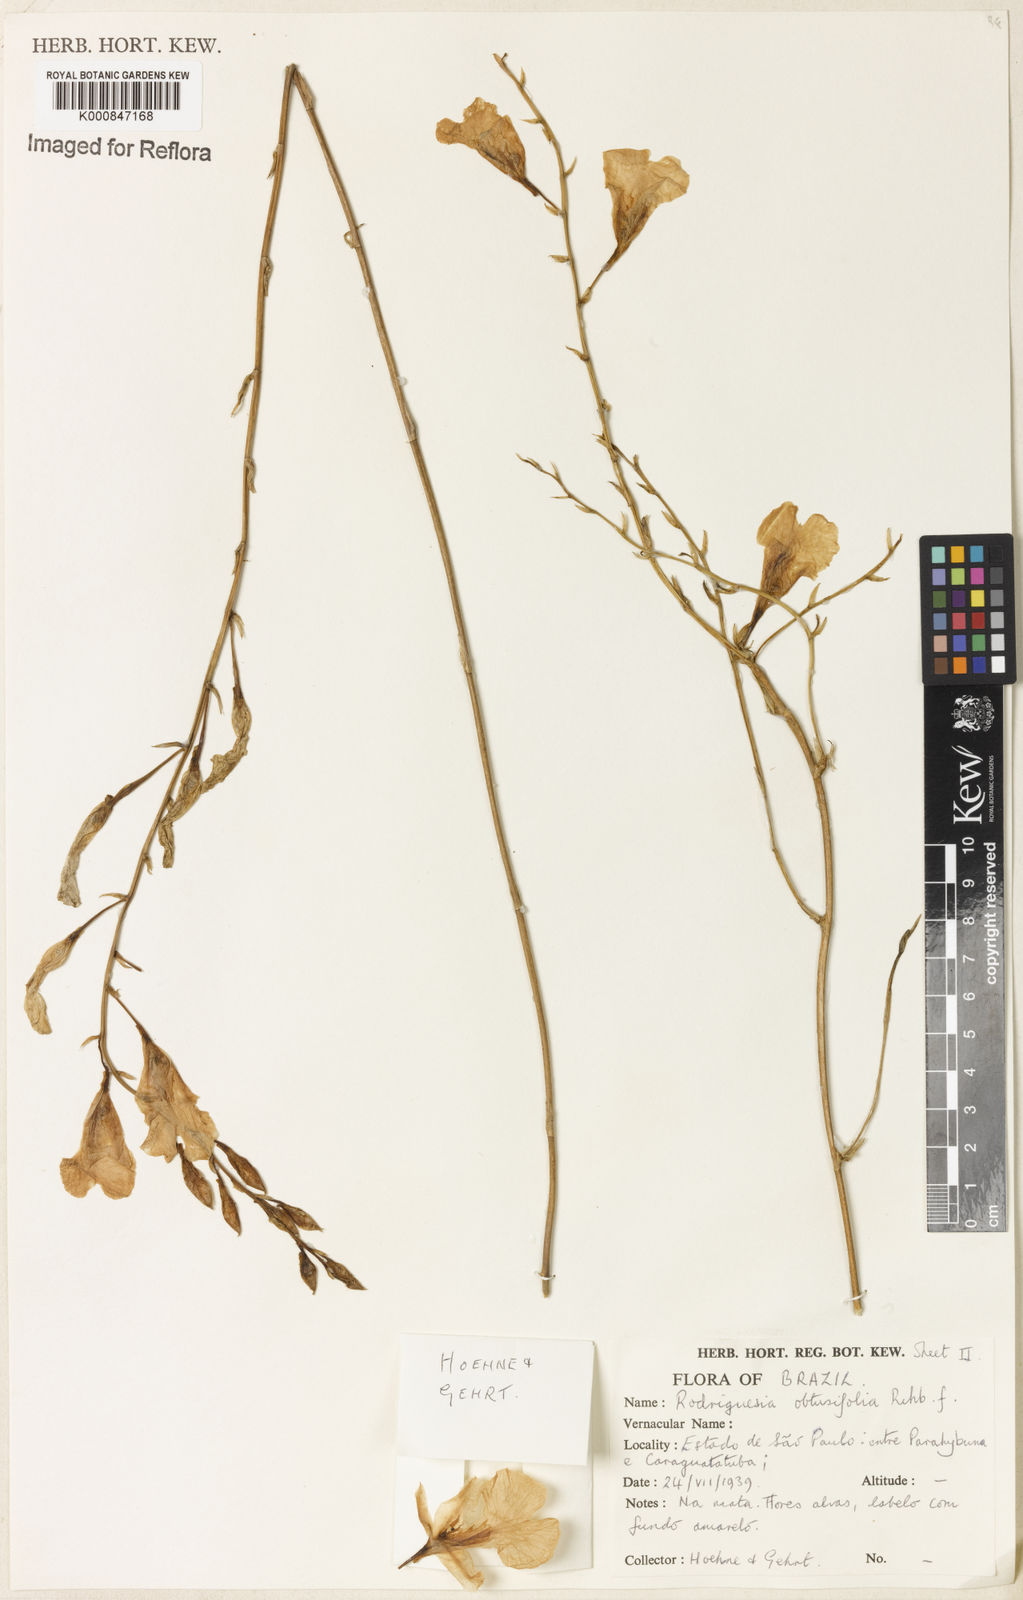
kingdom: Plantae
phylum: Tracheophyta
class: Liliopsida
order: Asparagales
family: Orchidaceae
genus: Rodriguezia
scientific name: Rodriguezia obtusifolia
